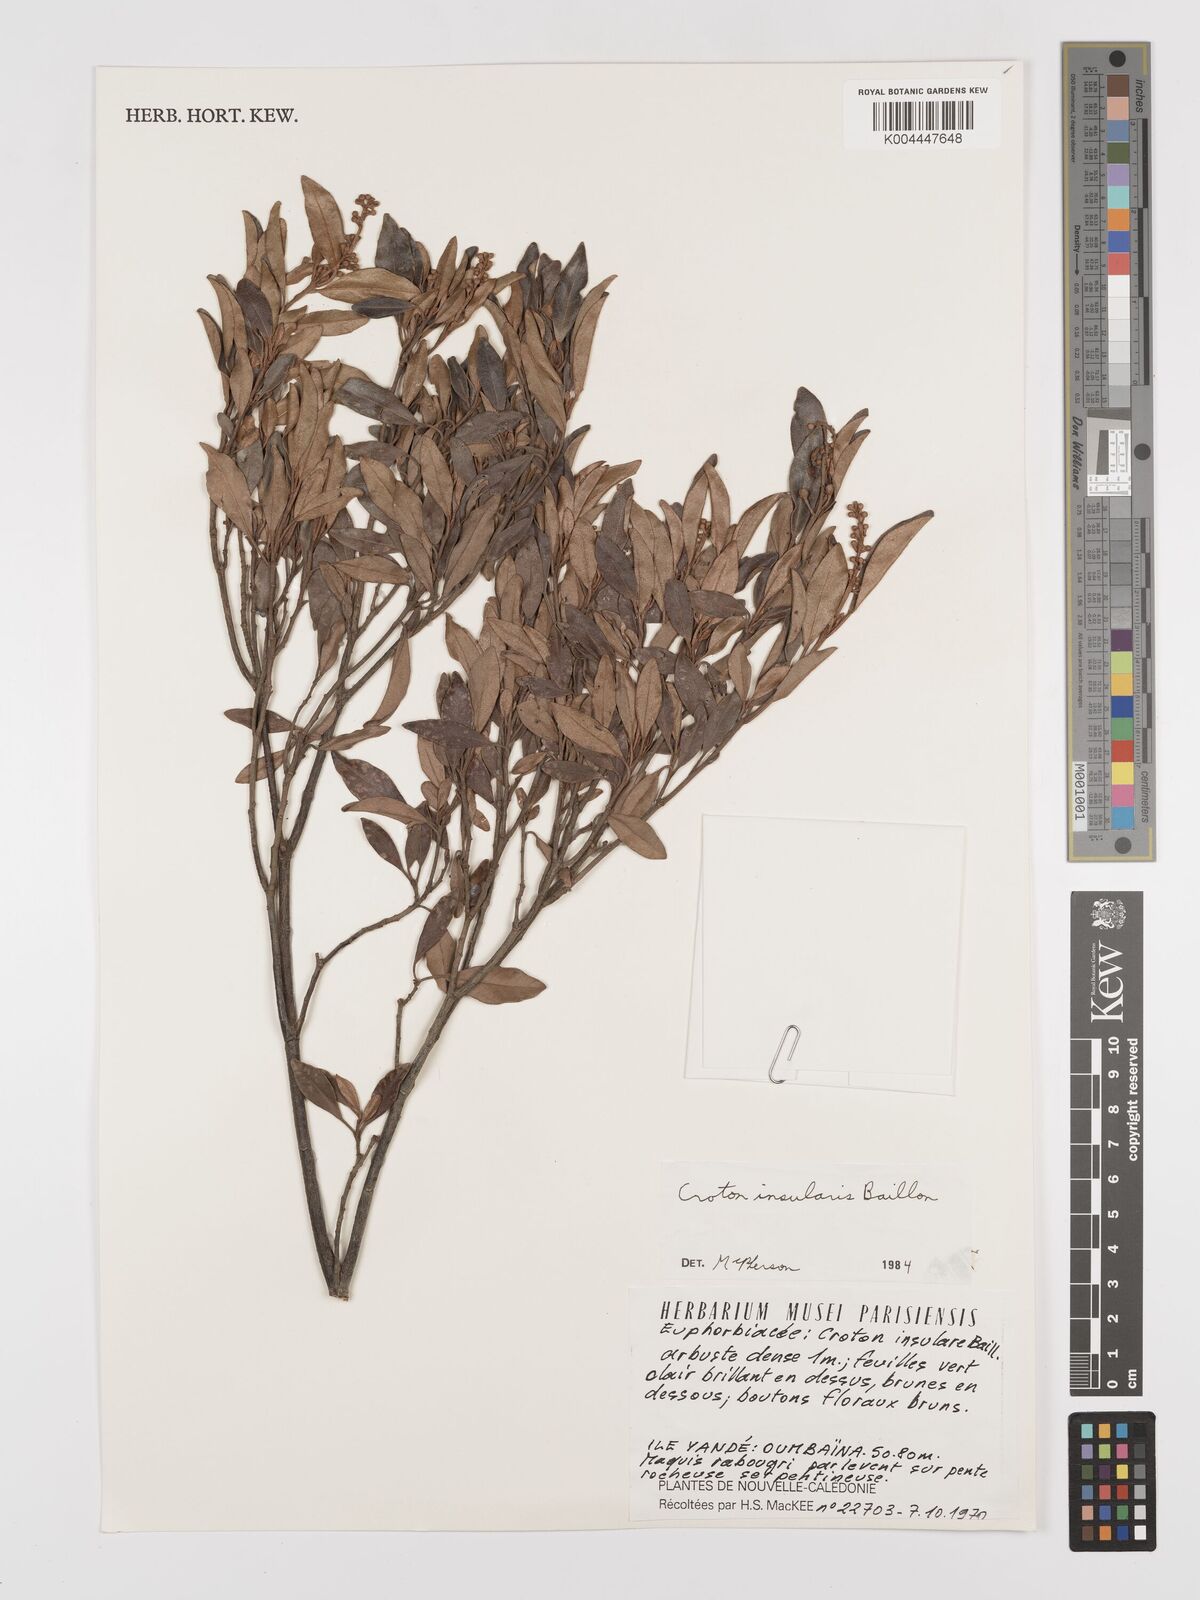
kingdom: Plantae
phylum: Tracheophyta
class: Magnoliopsida
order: Malpighiales
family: Euphorbiaceae
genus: Croton
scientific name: Croton insularis
